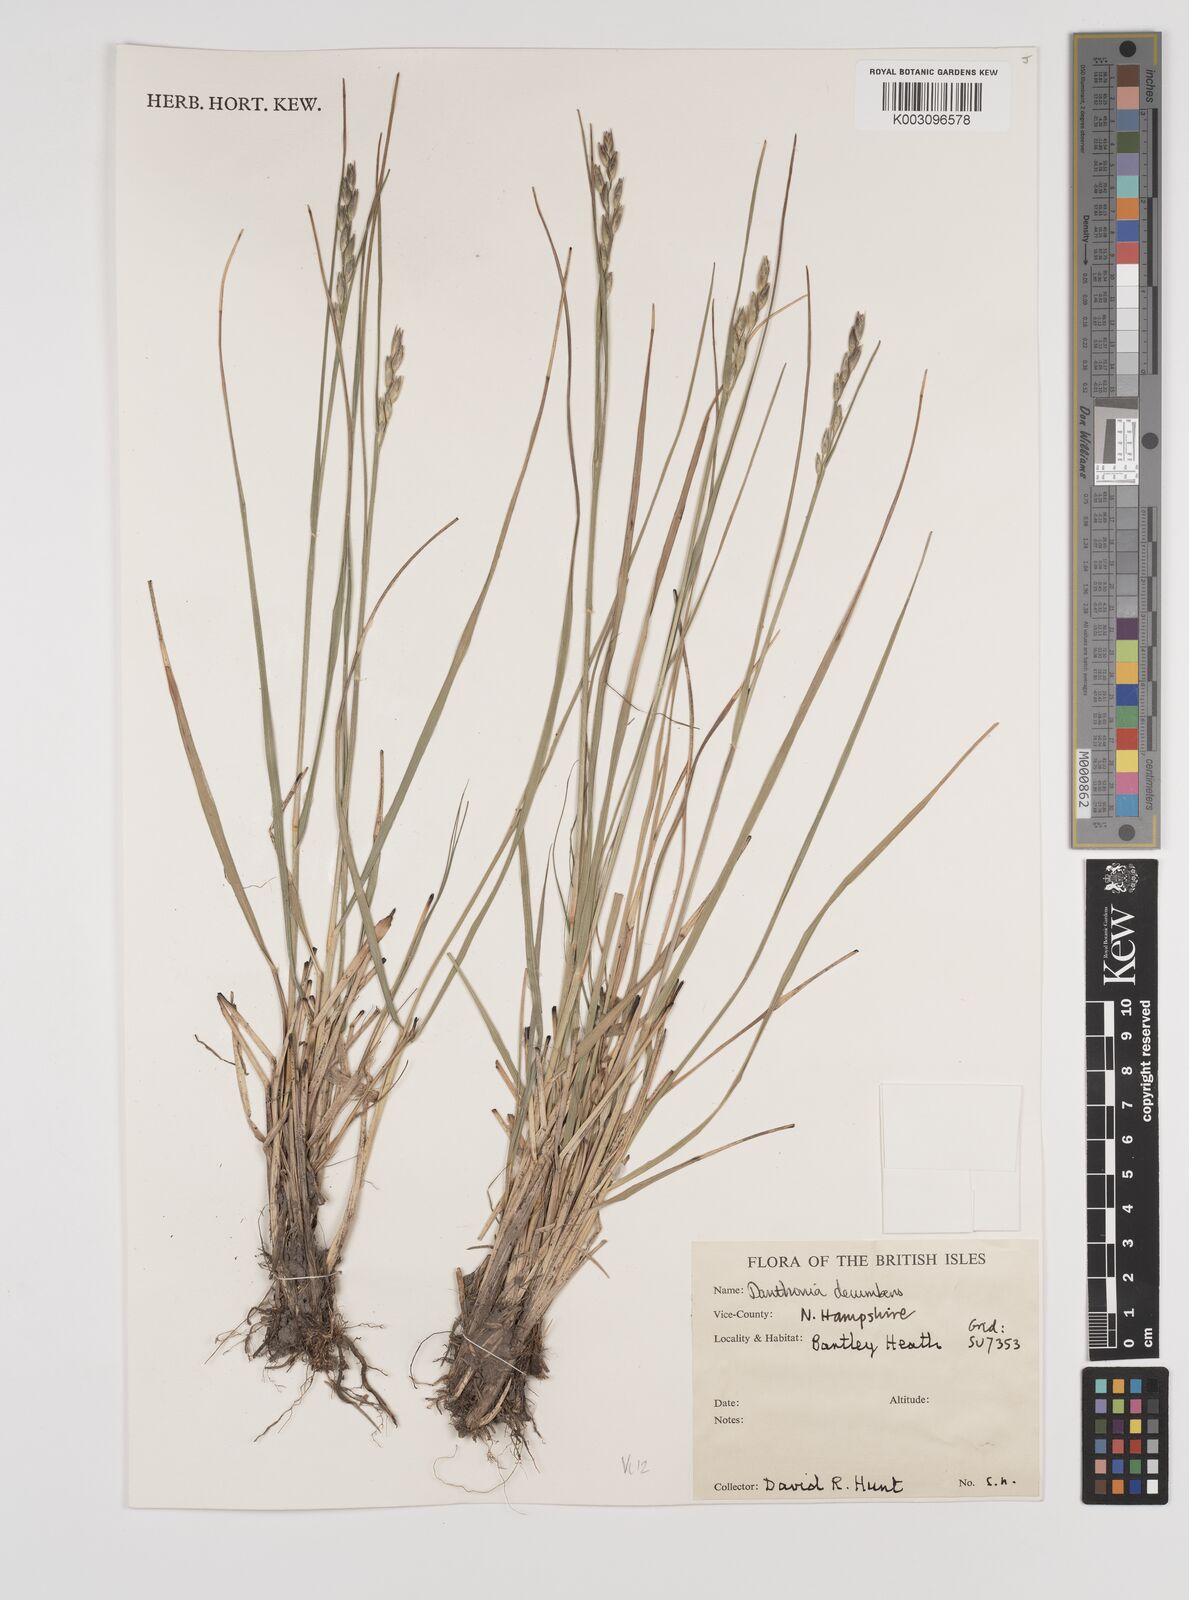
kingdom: Plantae
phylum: Tracheophyta
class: Liliopsida
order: Poales
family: Poaceae
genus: Danthonia
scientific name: Danthonia decumbens
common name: Common heathgrass
